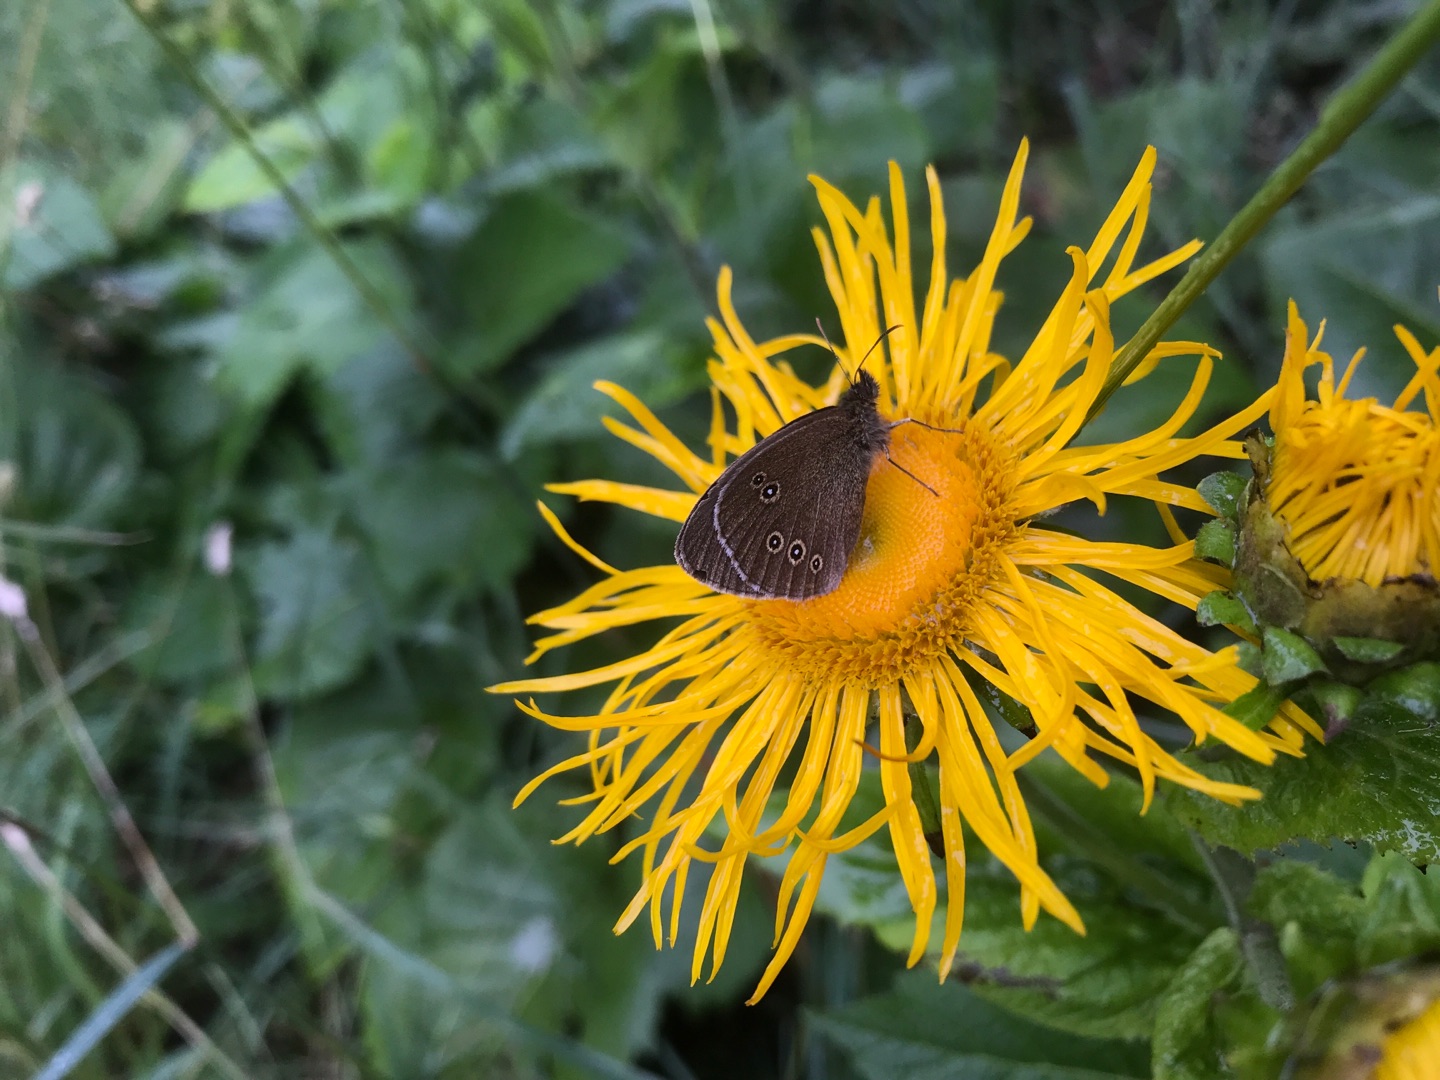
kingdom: Animalia
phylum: Arthropoda
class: Insecta
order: Lepidoptera
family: Nymphalidae
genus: Aphantopus
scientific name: Aphantopus hyperantus
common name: Engrandøje
